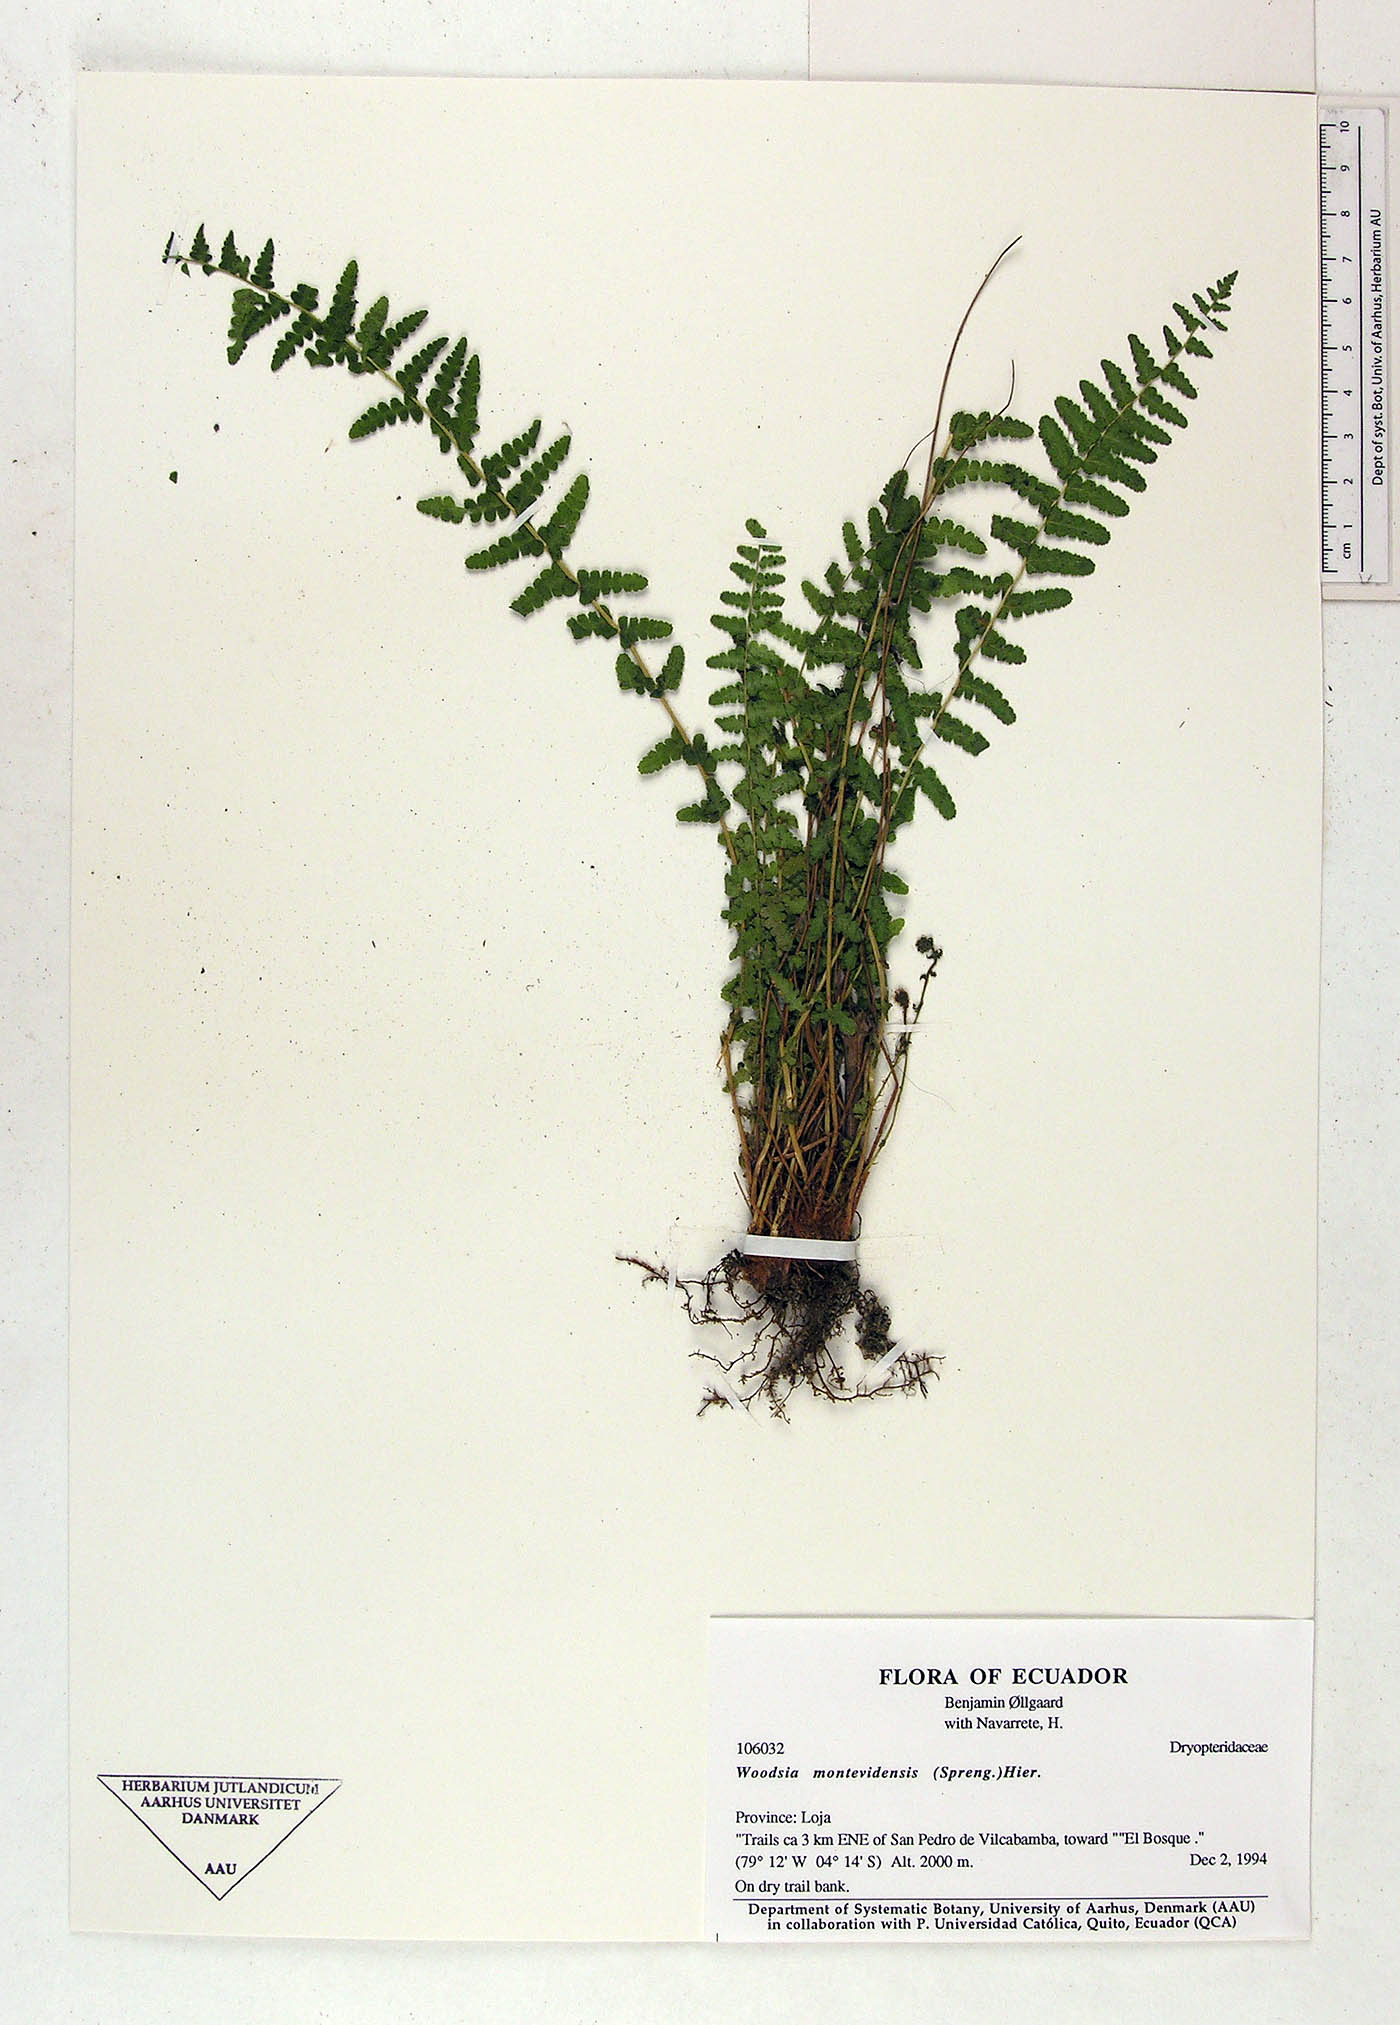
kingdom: Plantae
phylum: Tracheophyta
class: Polypodiopsida
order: Polypodiales
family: Woodsiaceae
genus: Physematium
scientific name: Physematium montevidense
